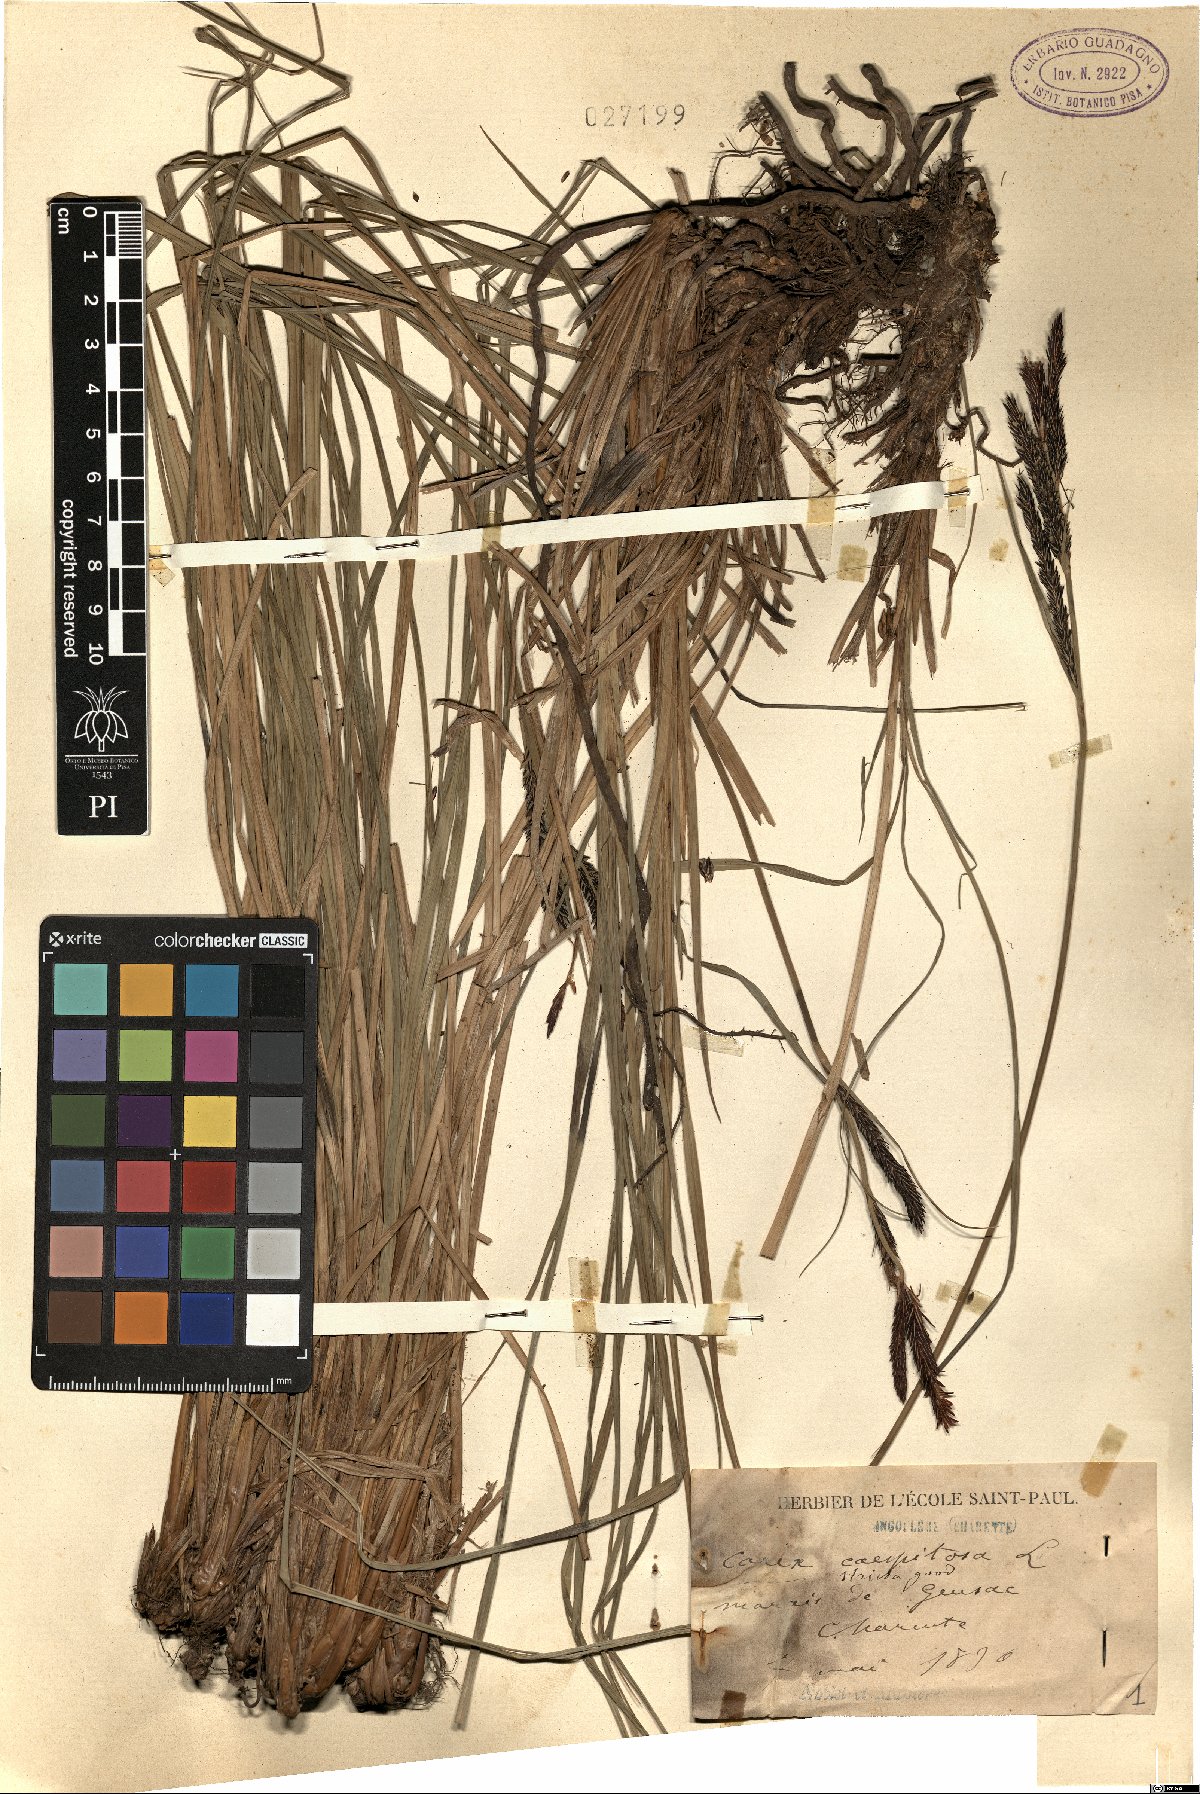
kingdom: Plantae
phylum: Tracheophyta
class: Liliopsida
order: Poales
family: Cyperaceae
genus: Carex
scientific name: Carex cespitosa
